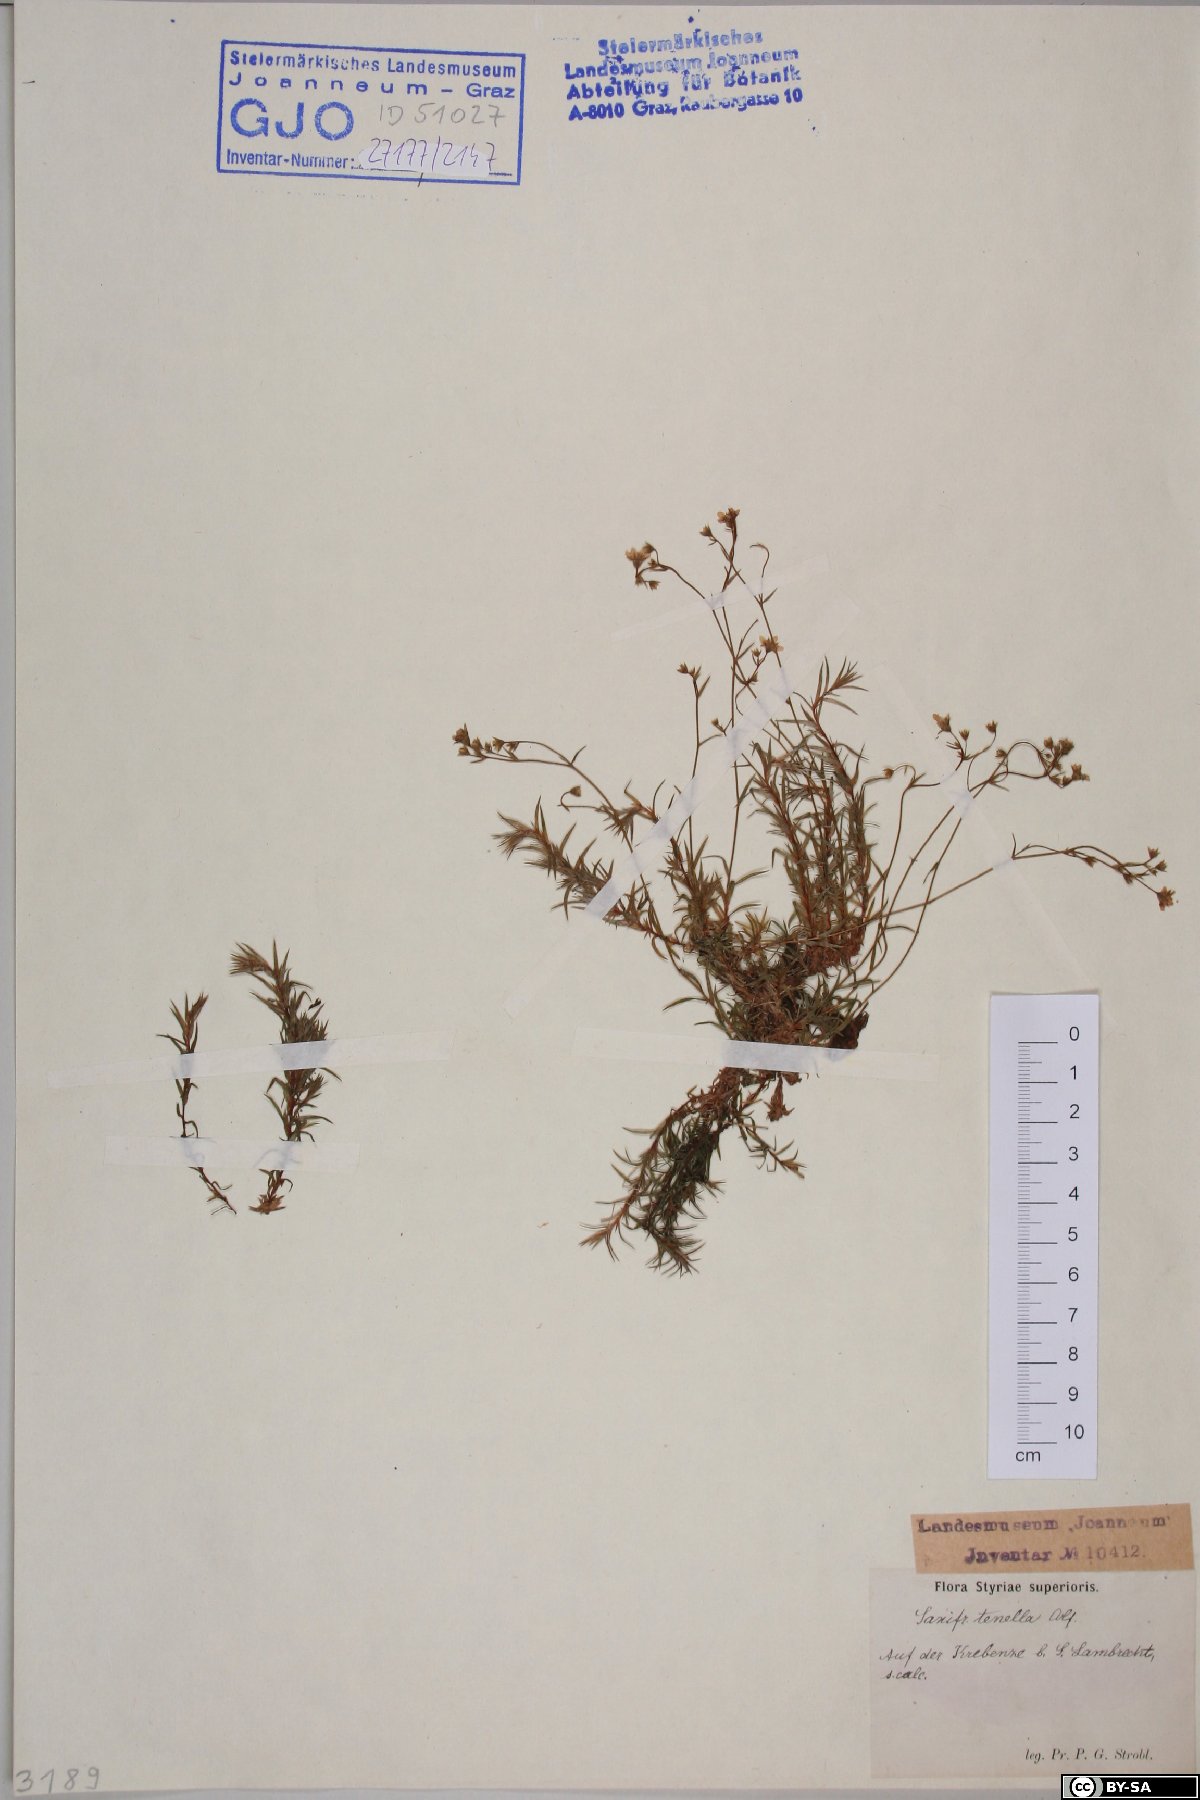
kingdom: Plantae
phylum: Tracheophyta
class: Magnoliopsida
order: Saxifragales
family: Saxifragaceae
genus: Saxifraga
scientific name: Saxifraga tenella
